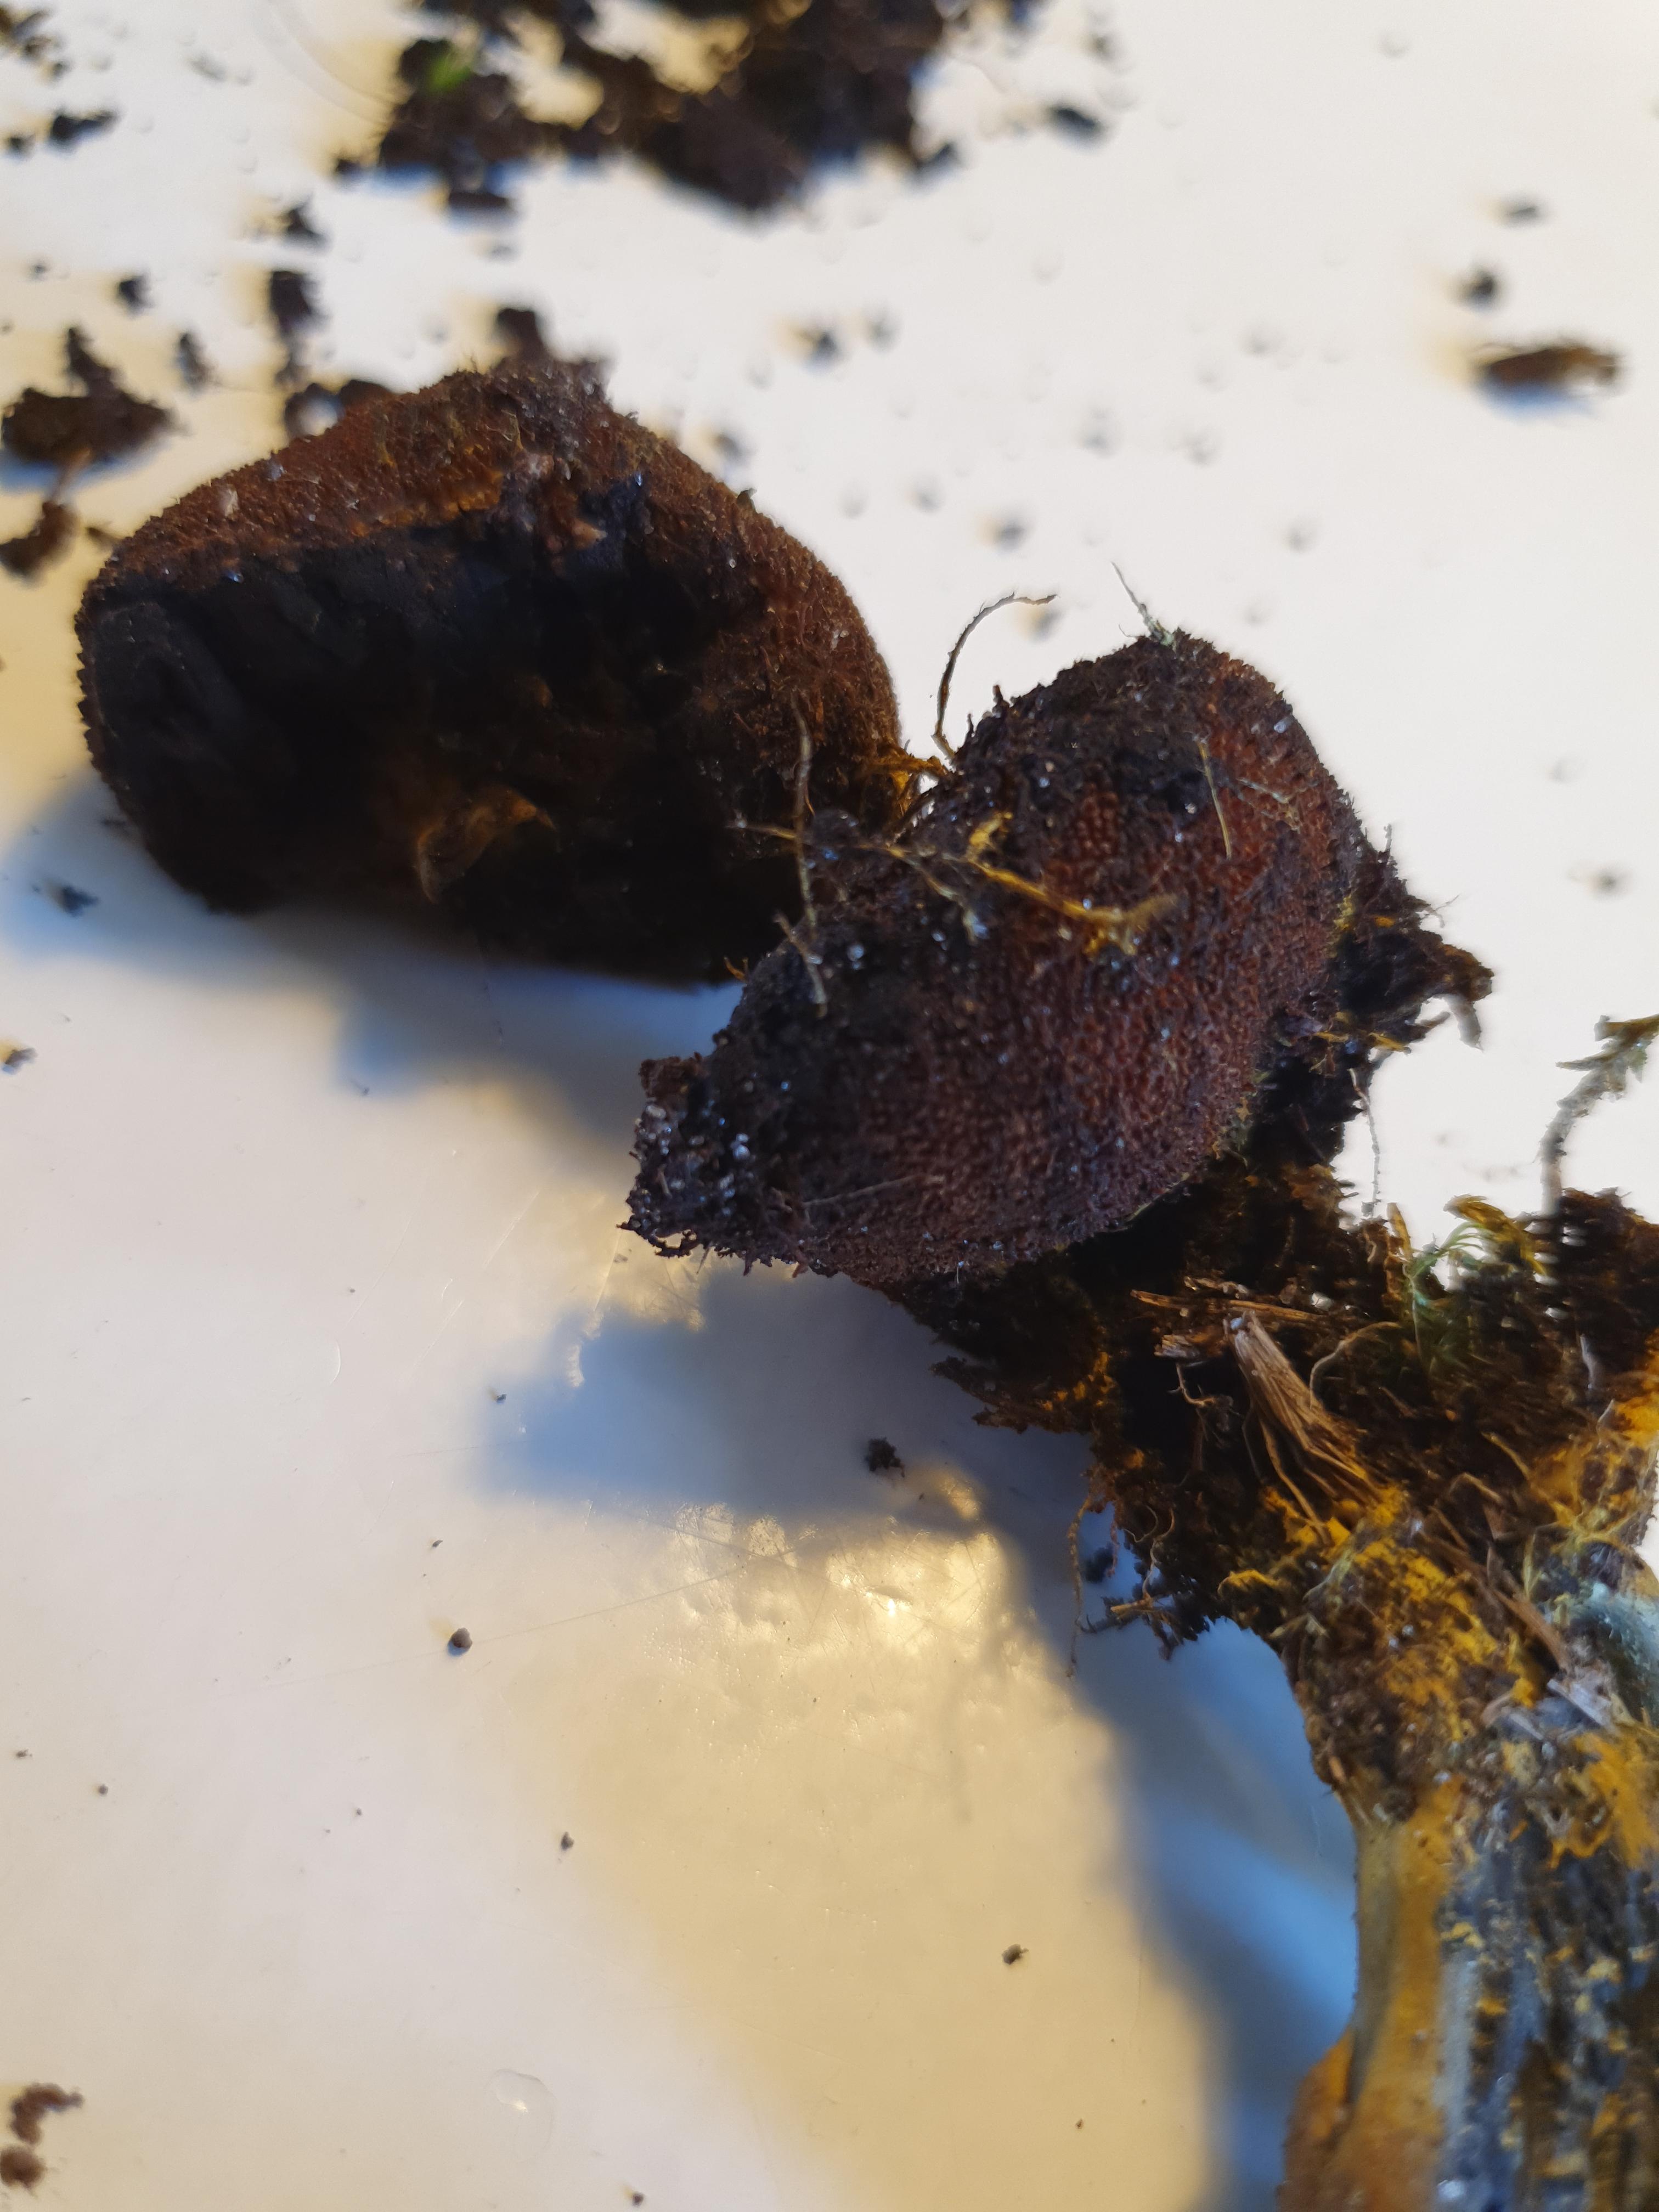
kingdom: Fungi
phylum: Ascomycota
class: Sordariomycetes
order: Hypocreales
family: Ophiocordycipitaceae
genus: Tolypocladium
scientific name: Tolypocladium ophioglossoides
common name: slank snyltekølle
